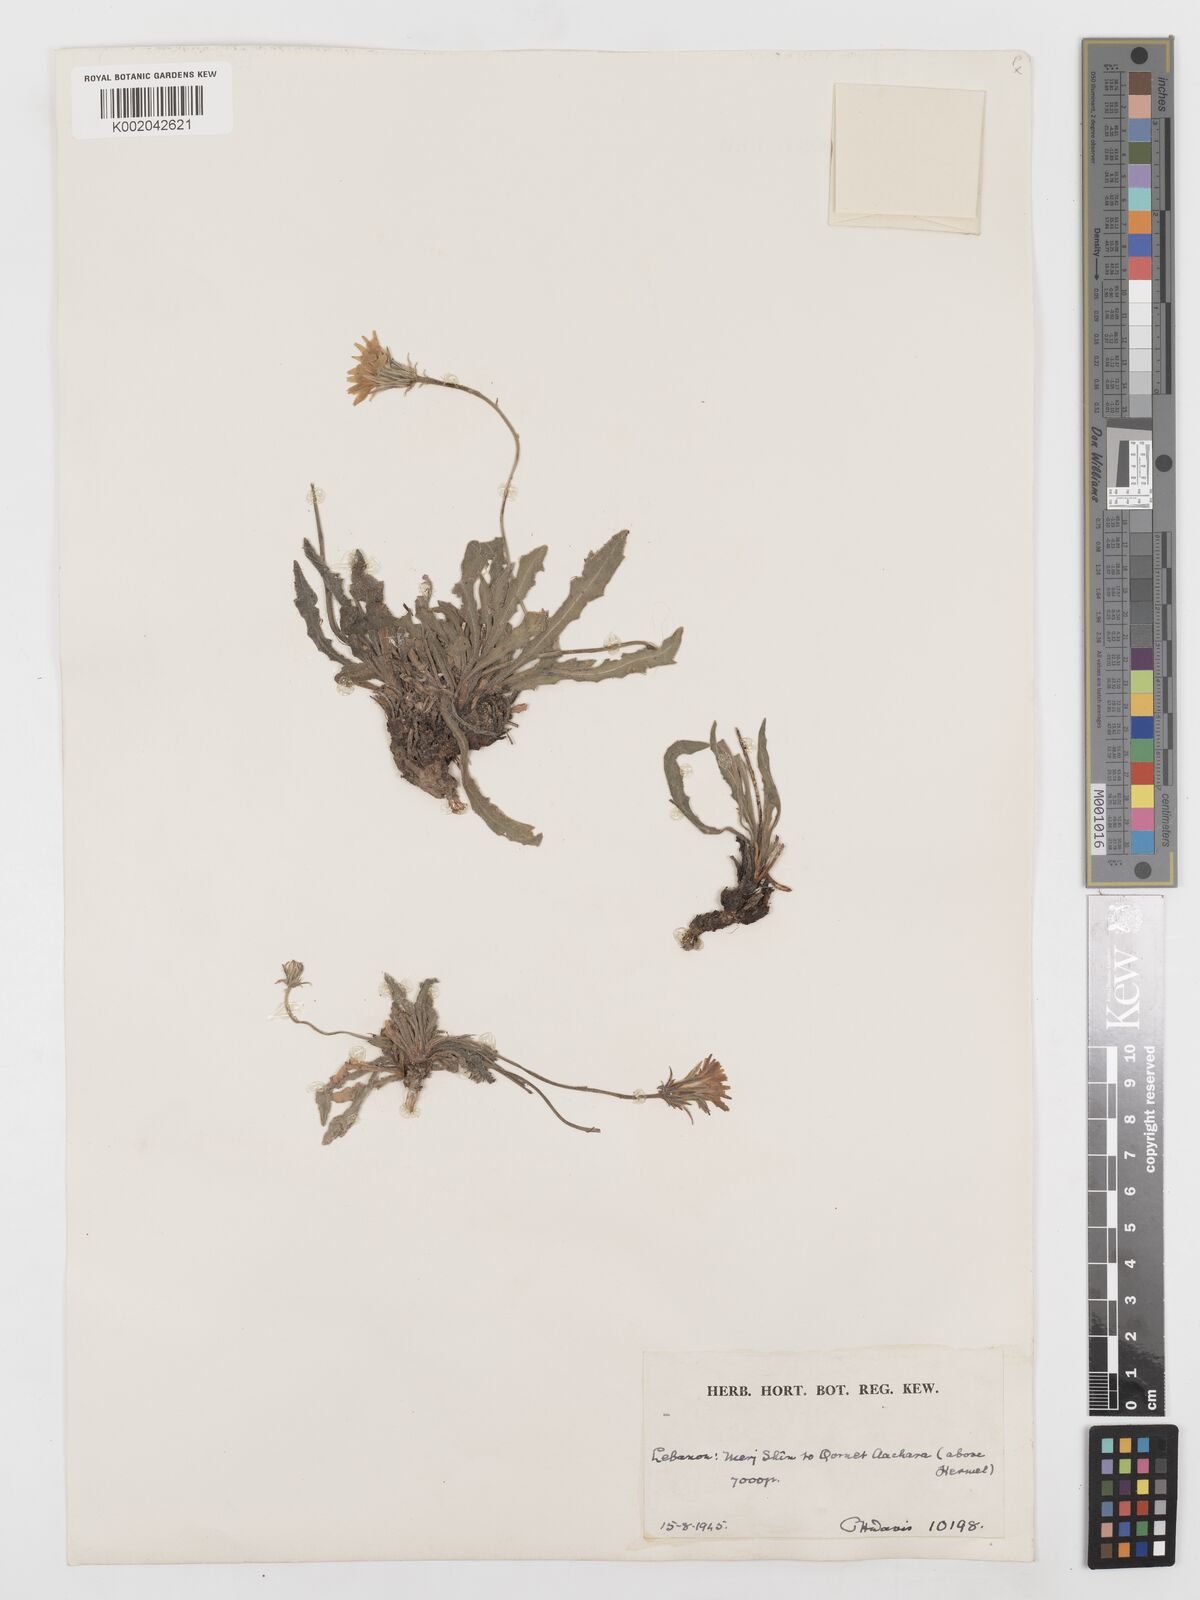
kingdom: Plantae
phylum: Tracheophyta
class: Magnoliopsida
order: Asterales
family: Asteraceae
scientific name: Asteraceae
